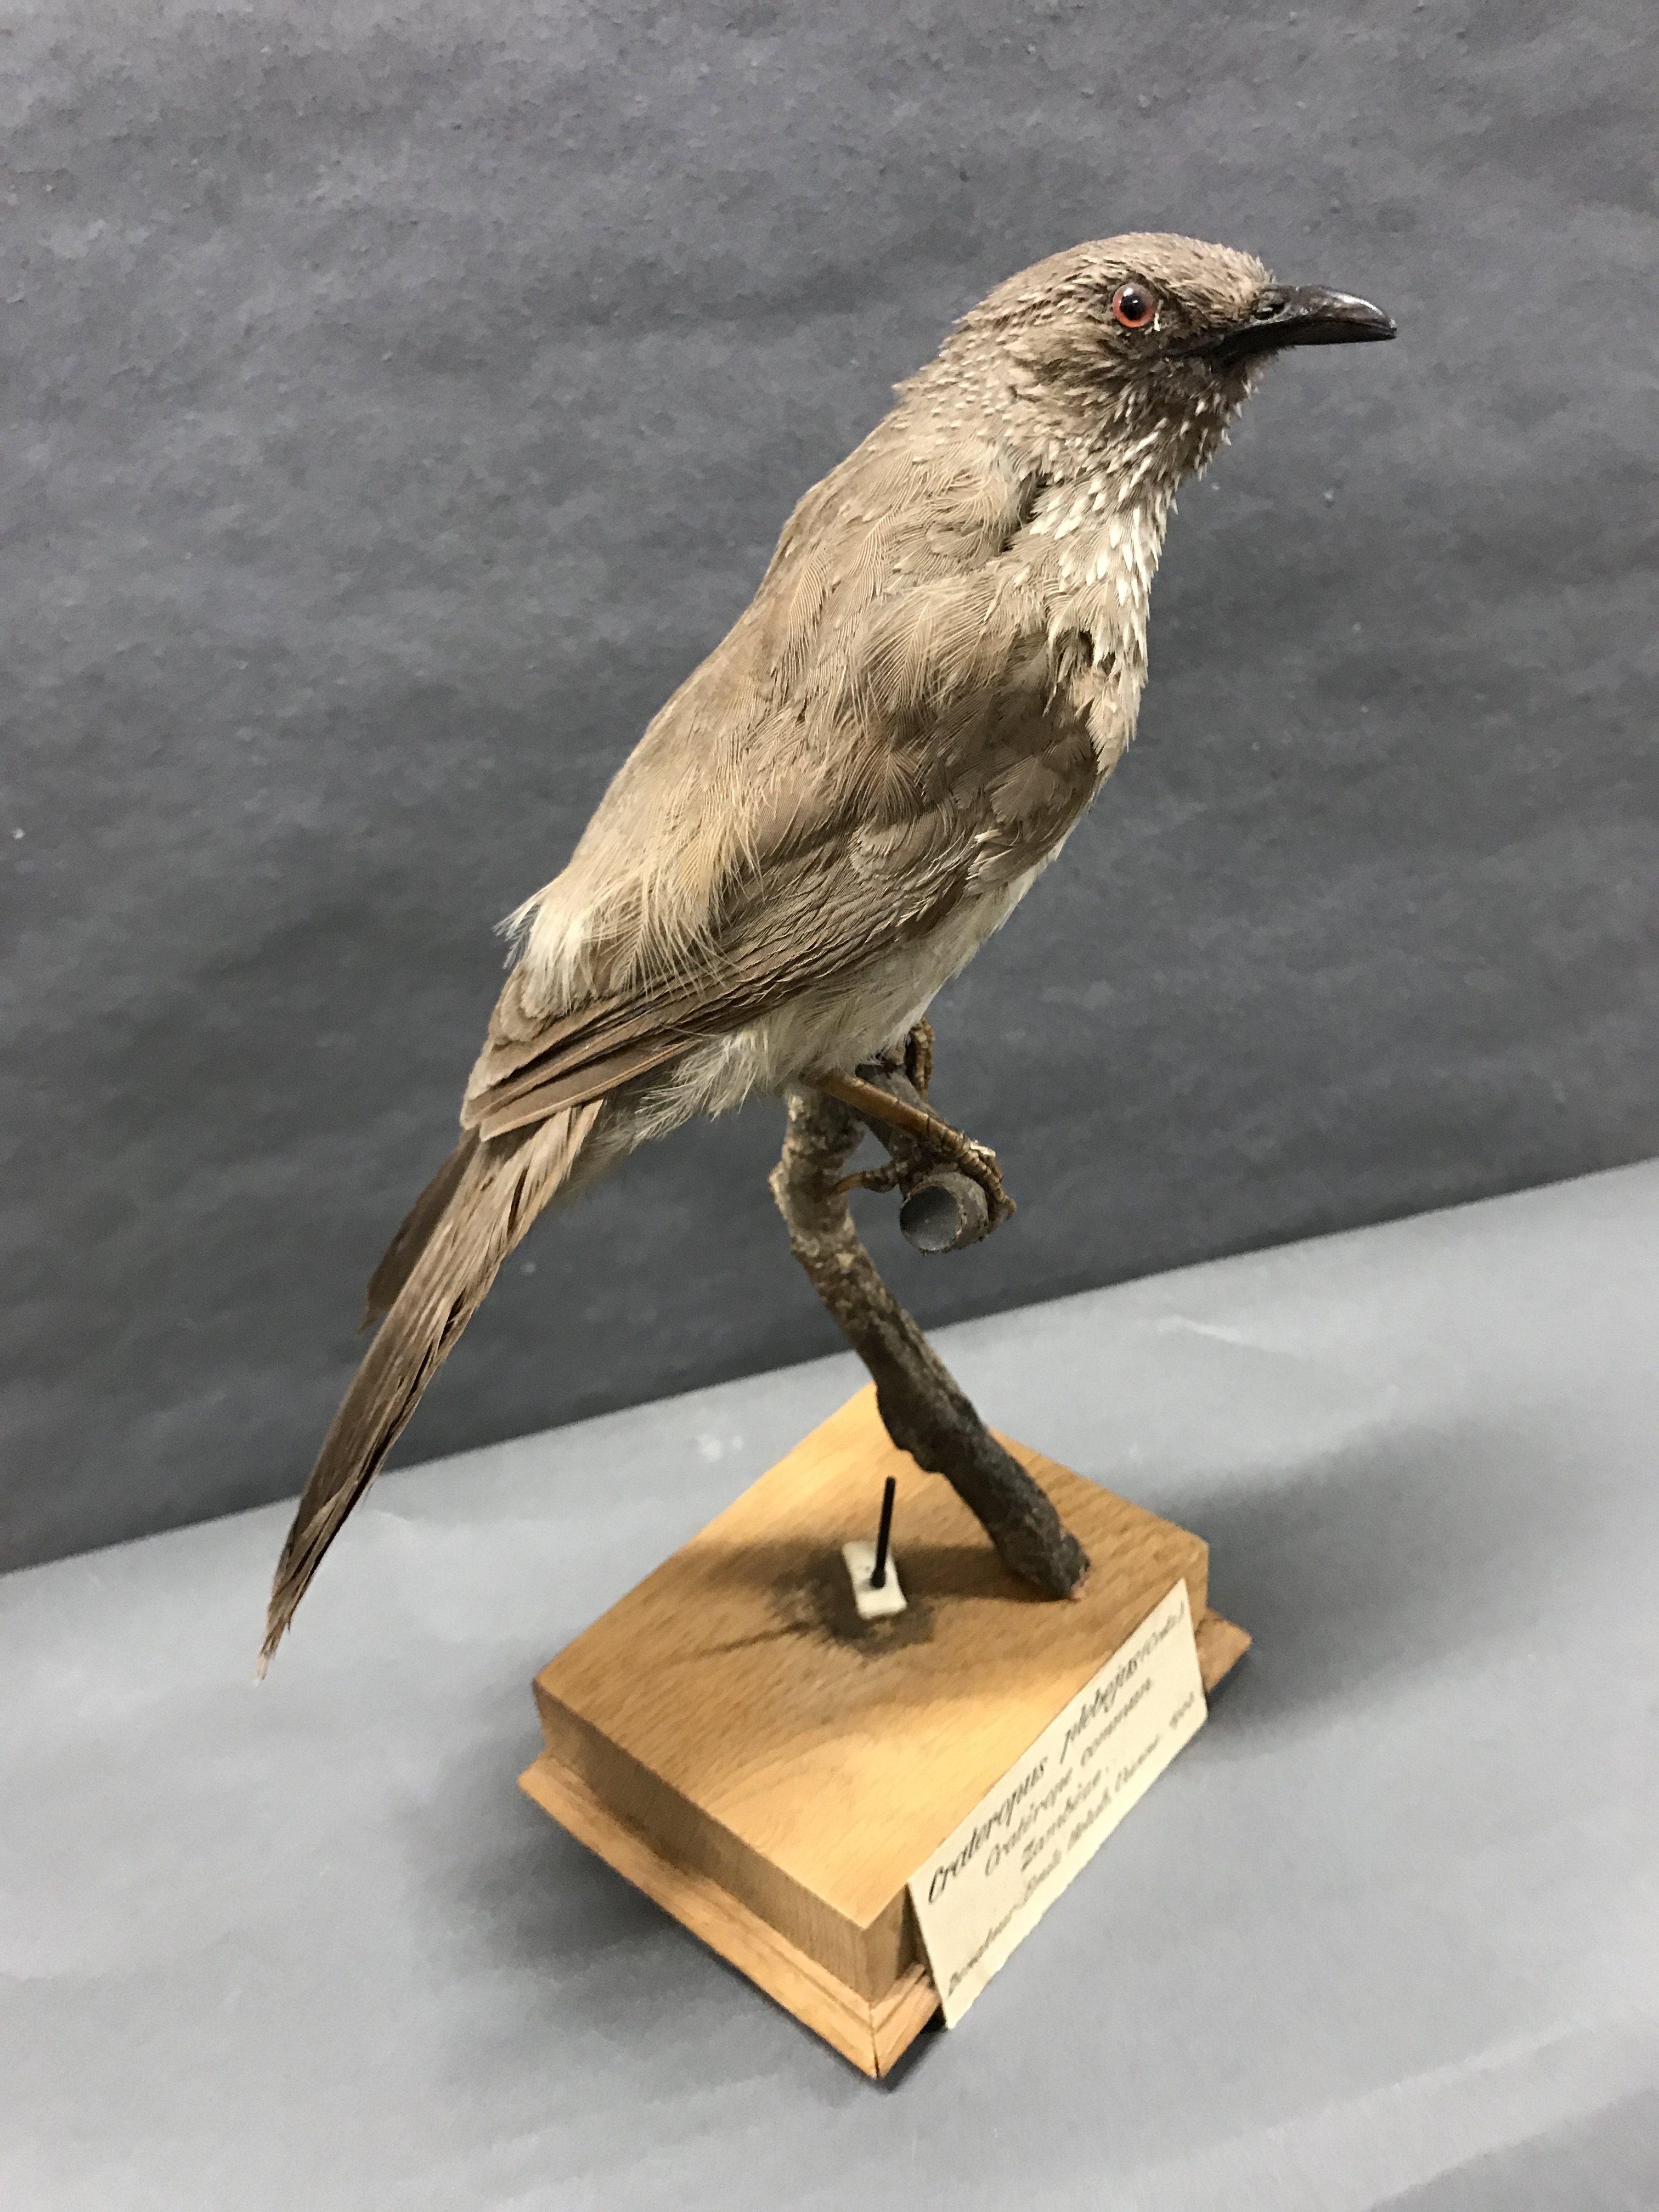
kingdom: Animalia
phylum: Chordata
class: Aves
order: Passeriformes
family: Leiothrichidae
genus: Turdoides
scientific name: Turdoides jardineii
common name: Arrow-marked babbler
